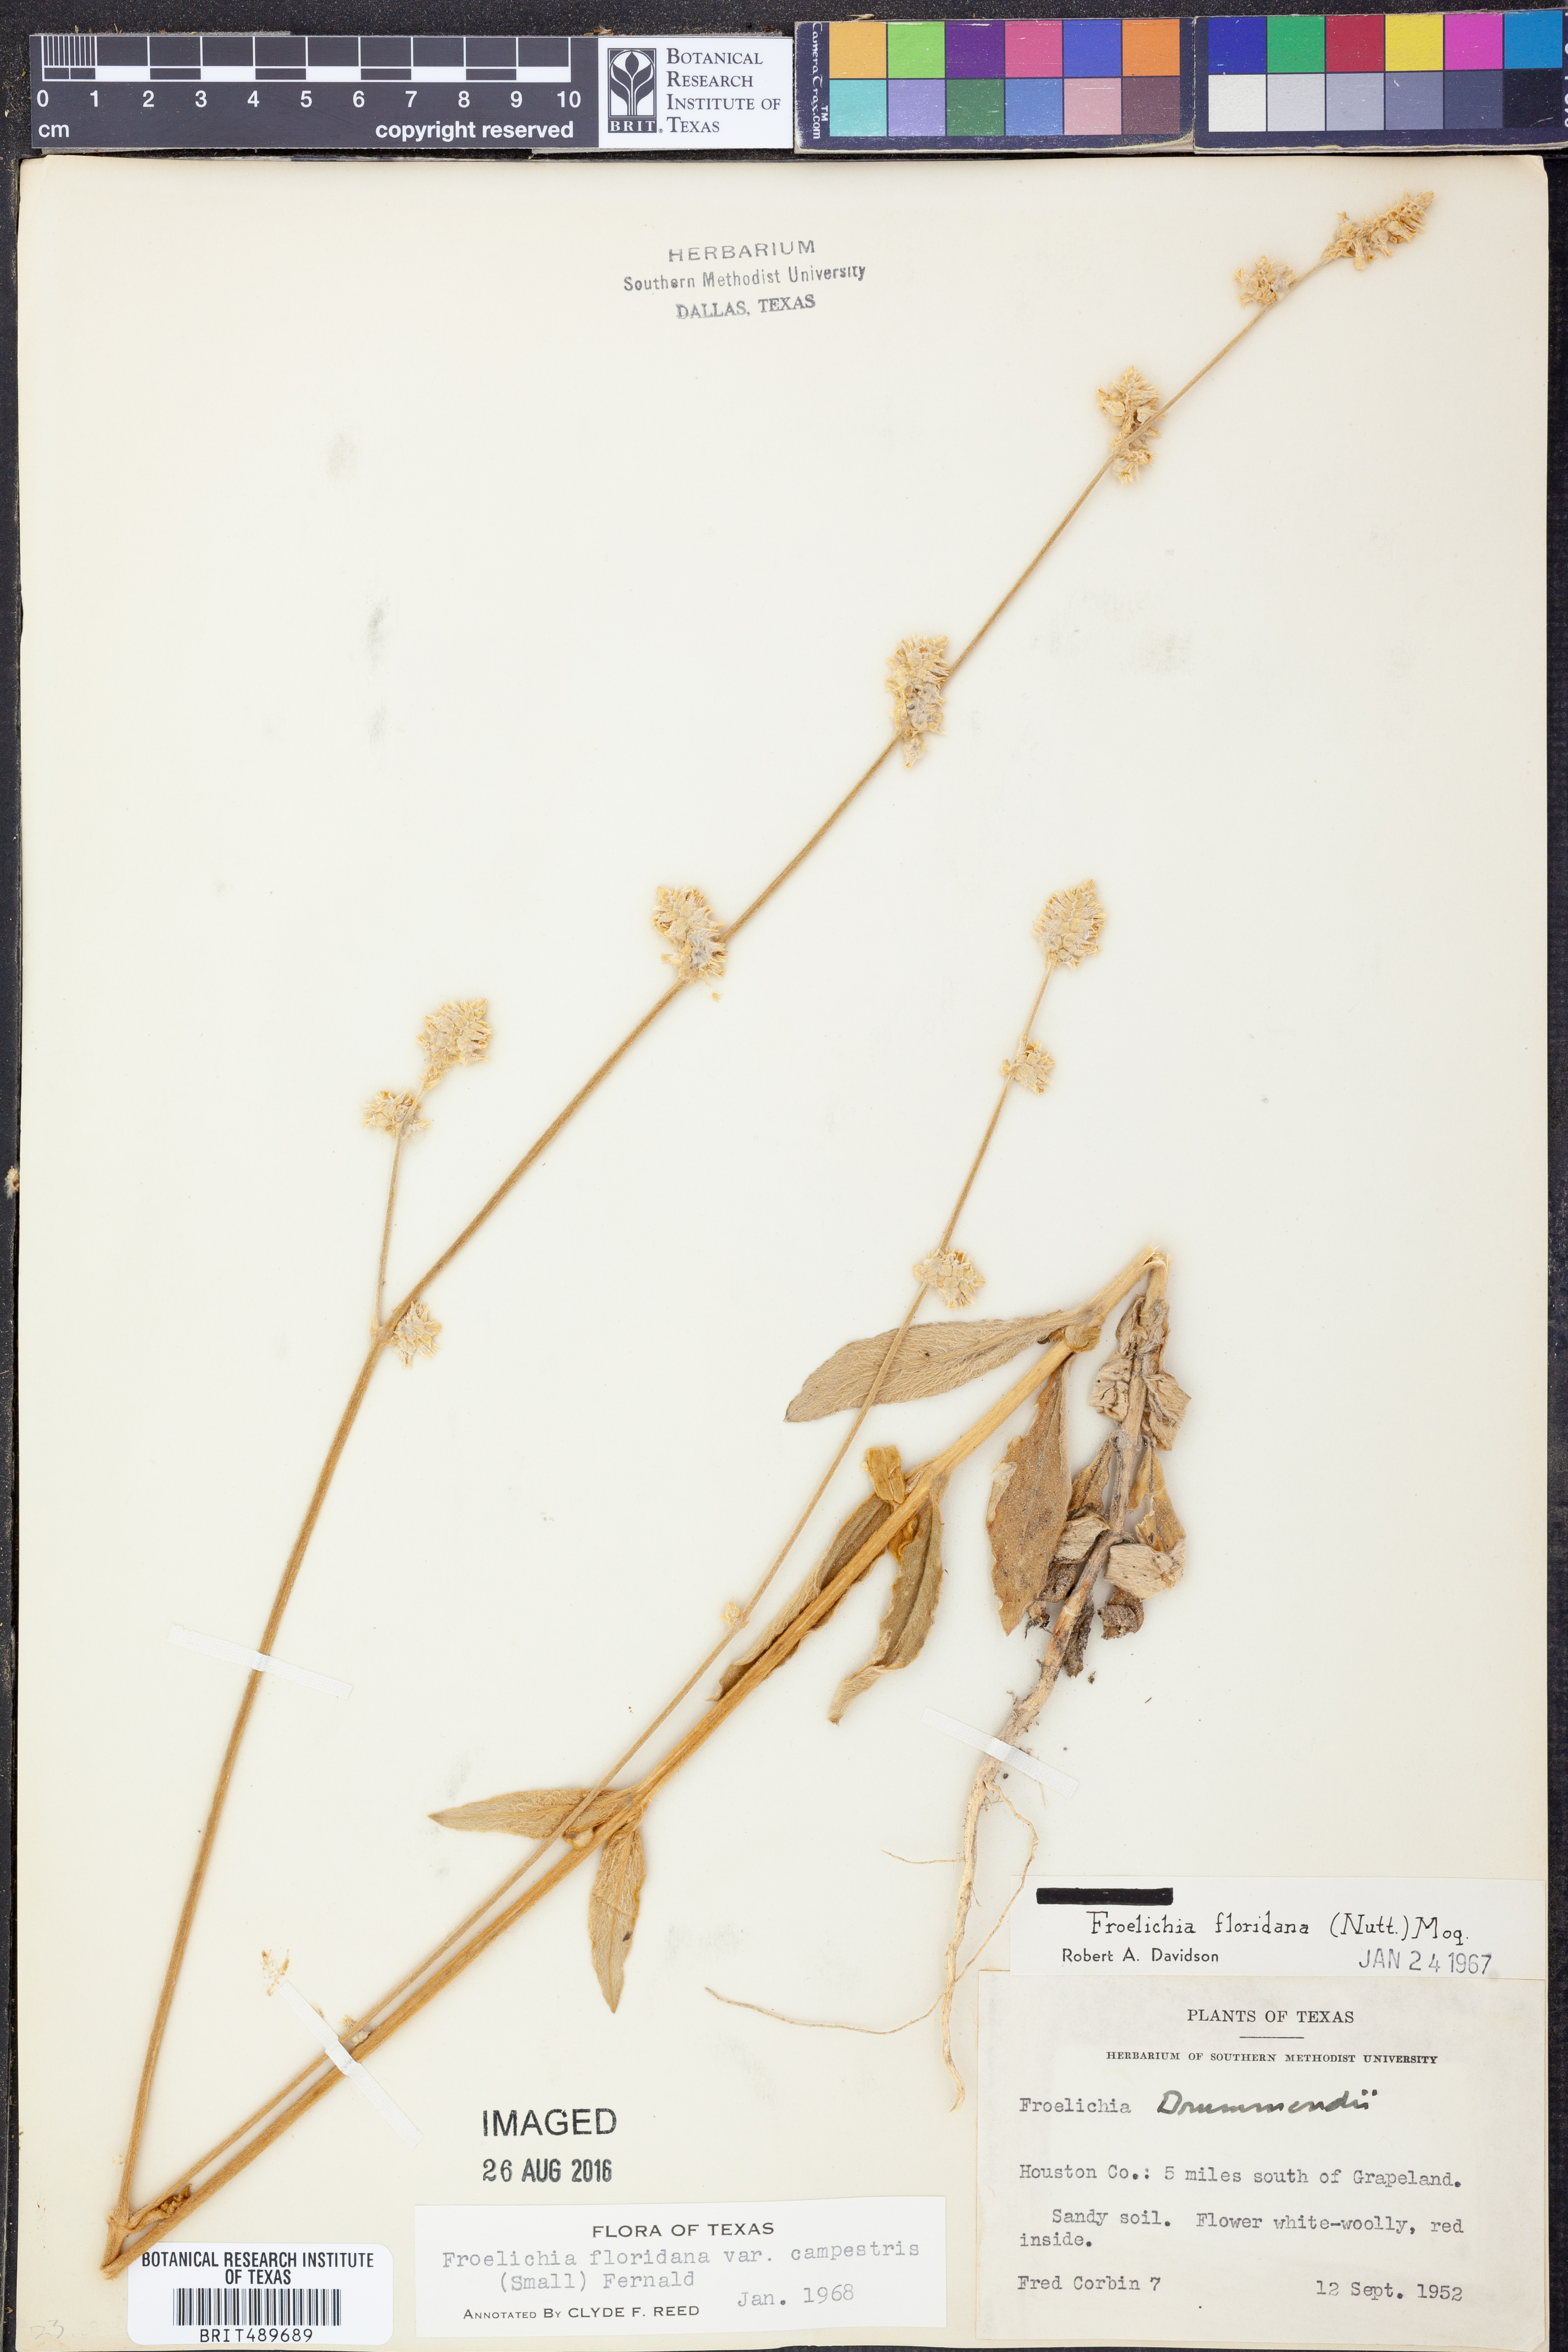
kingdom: Plantae
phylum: Tracheophyta
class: Magnoliopsida
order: Caryophyllales
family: Amaranthaceae
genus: Froelichia
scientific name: Froelichia floridana
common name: Florida snake-cotton
